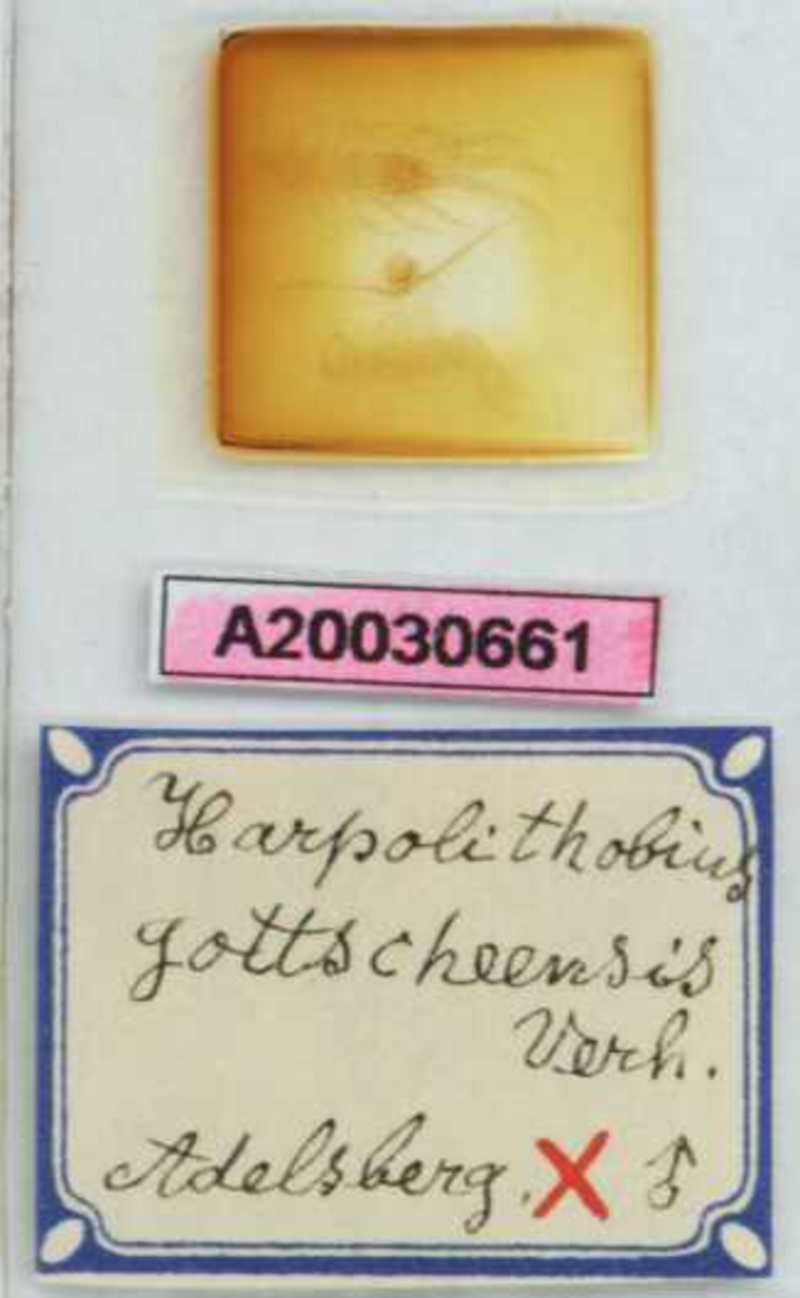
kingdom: Animalia
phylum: Arthropoda
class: Chilopoda
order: Lithobiomorpha
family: Lithobiidae
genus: Harpolithobius
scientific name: Harpolithobius gottscheensis
